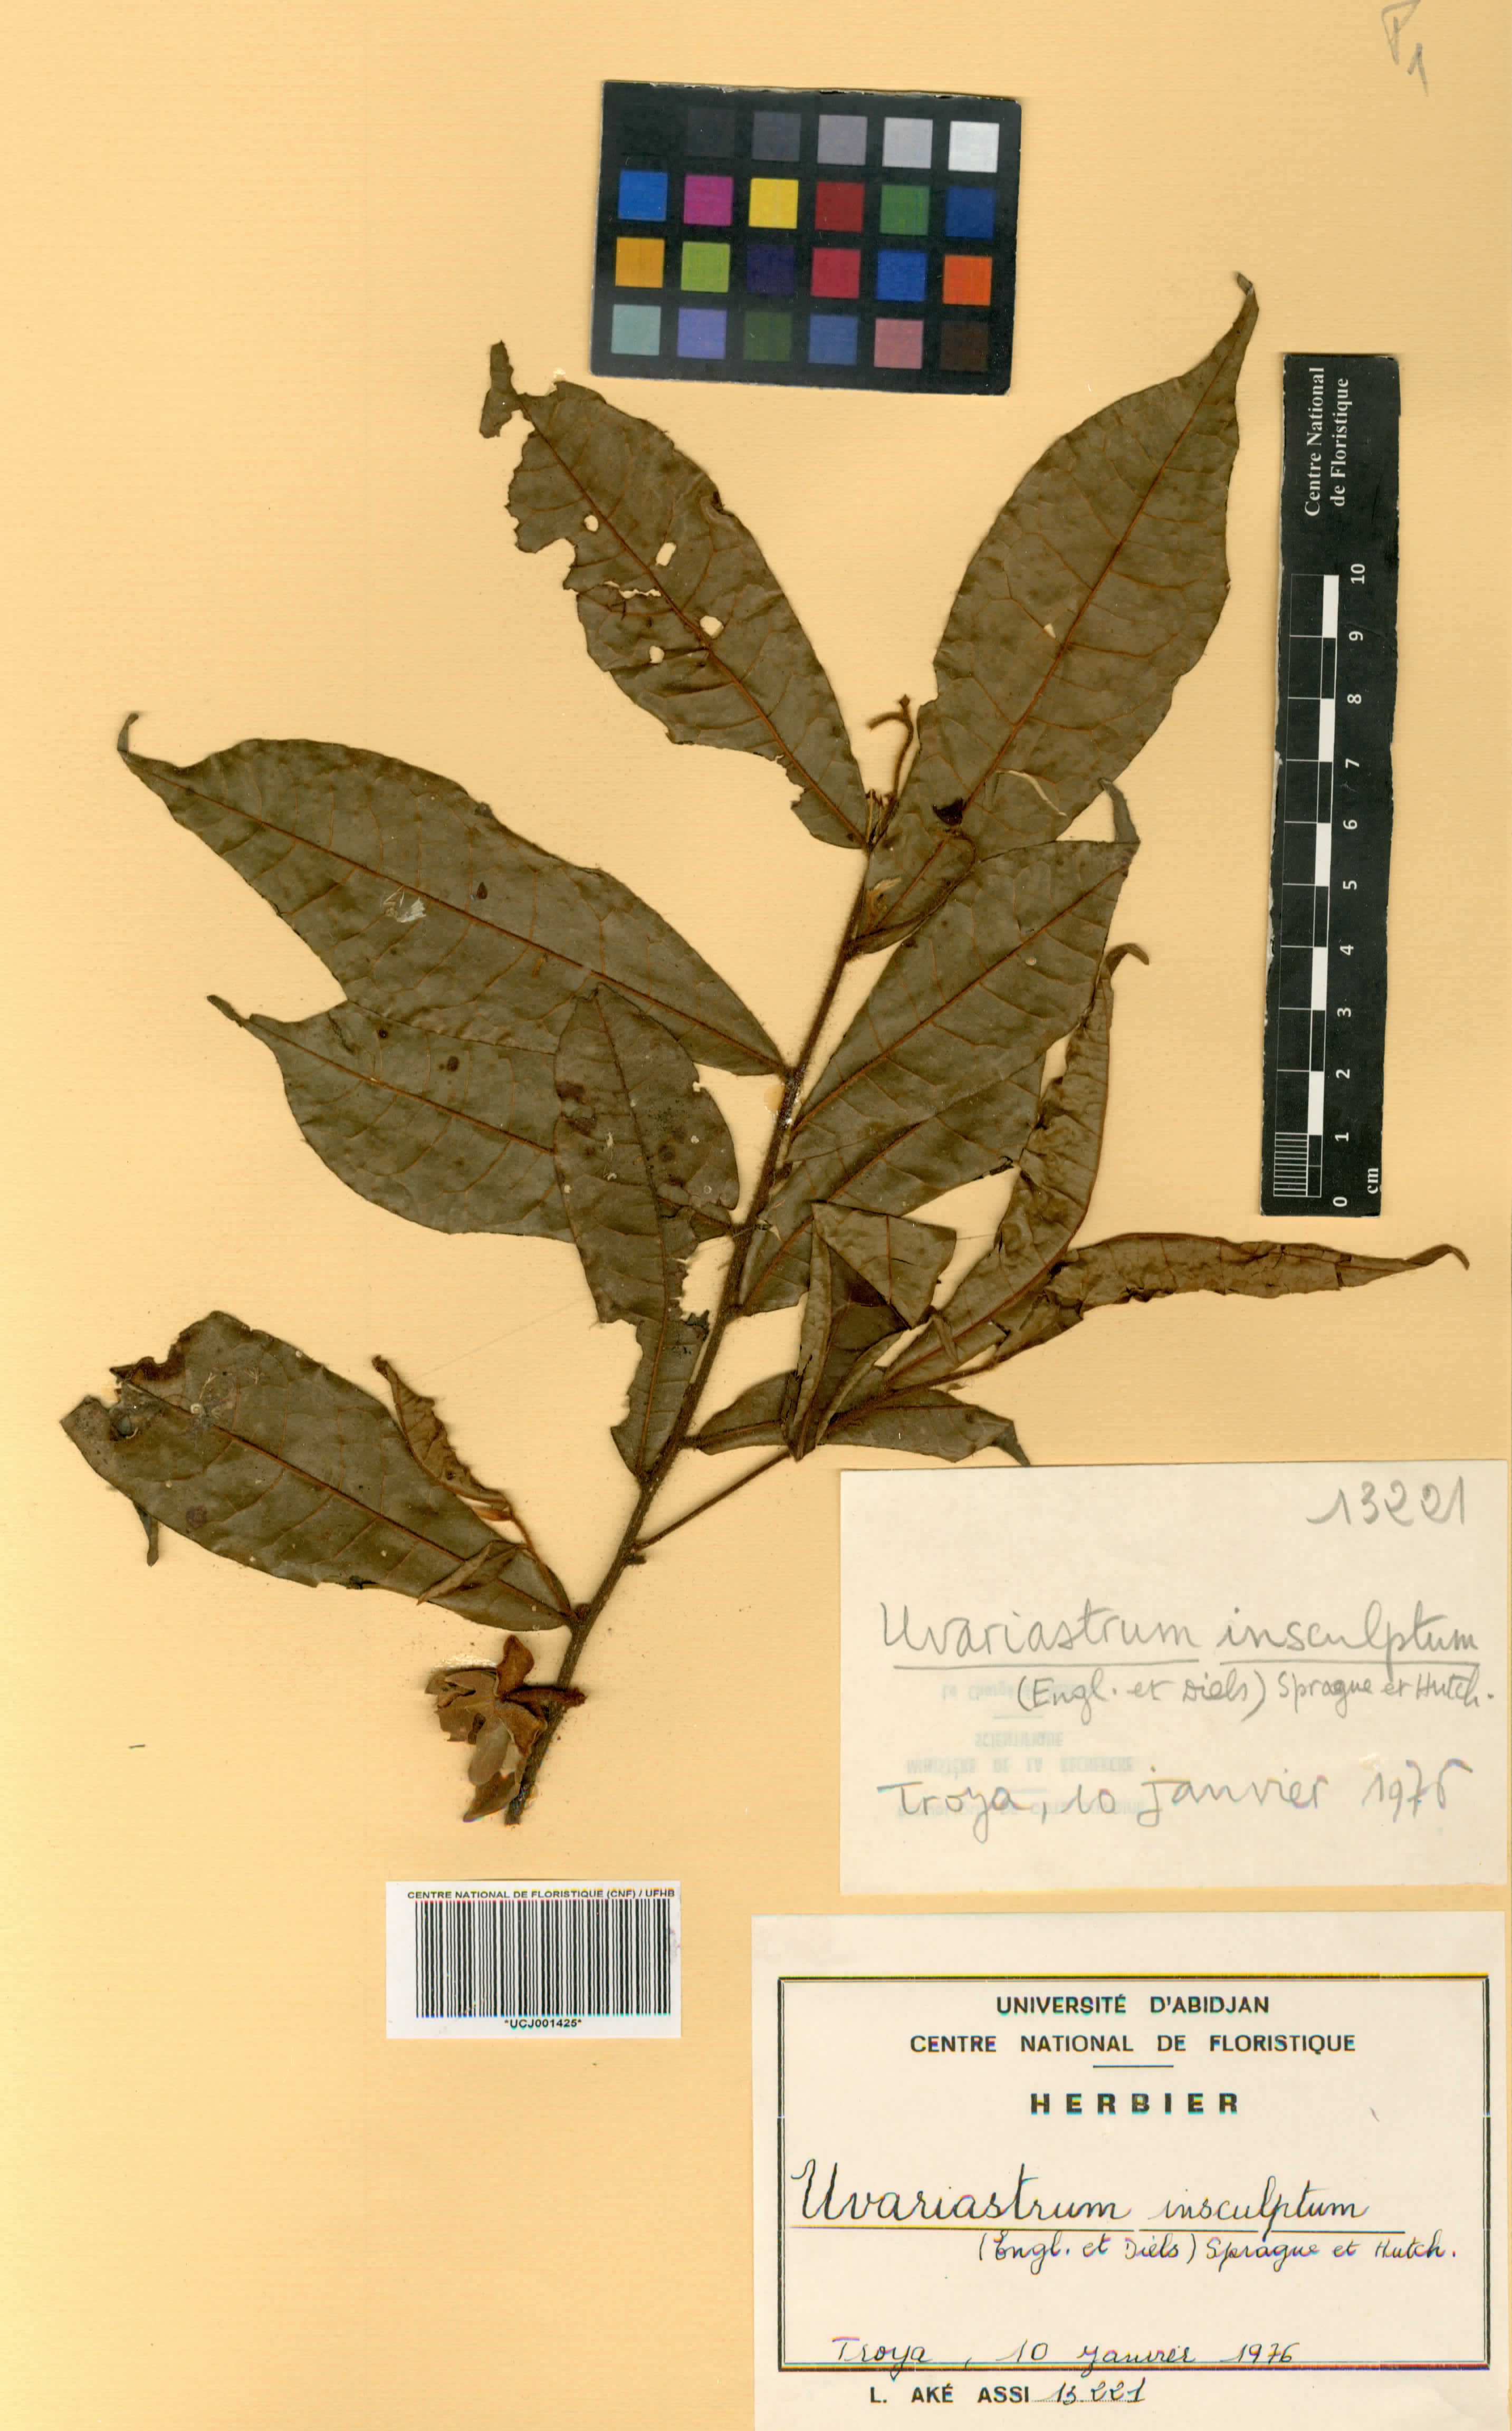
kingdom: Plantae
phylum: Tracheophyta
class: Magnoliopsida
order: Magnoliales
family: Annonaceae
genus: Uvariastrum
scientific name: Uvariastrum pierreanum
